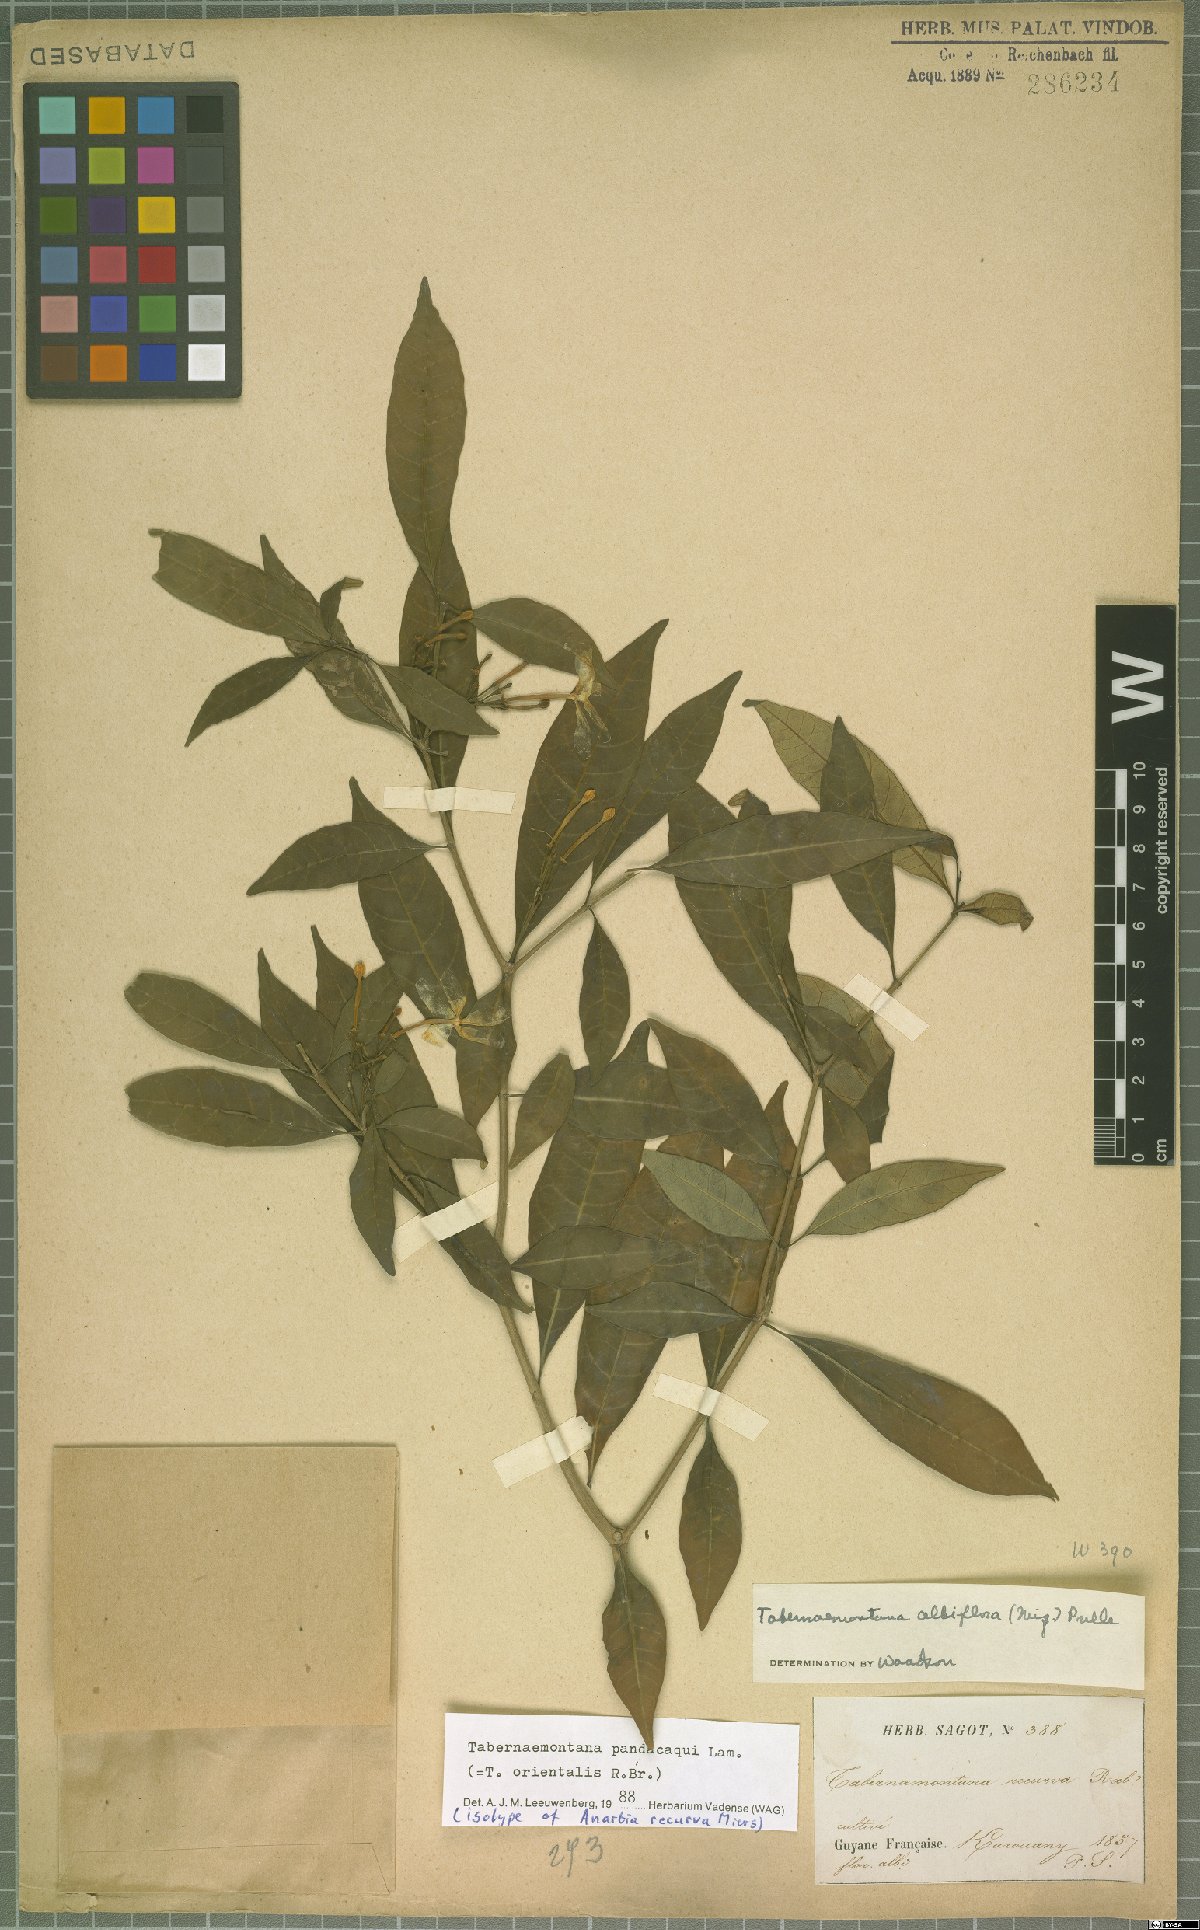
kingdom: Plantae
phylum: Tracheophyta
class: Magnoliopsida
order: Gentianales
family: Apocynaceae
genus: Tabernaemontana
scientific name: Tabernaemontana pandacaqui
